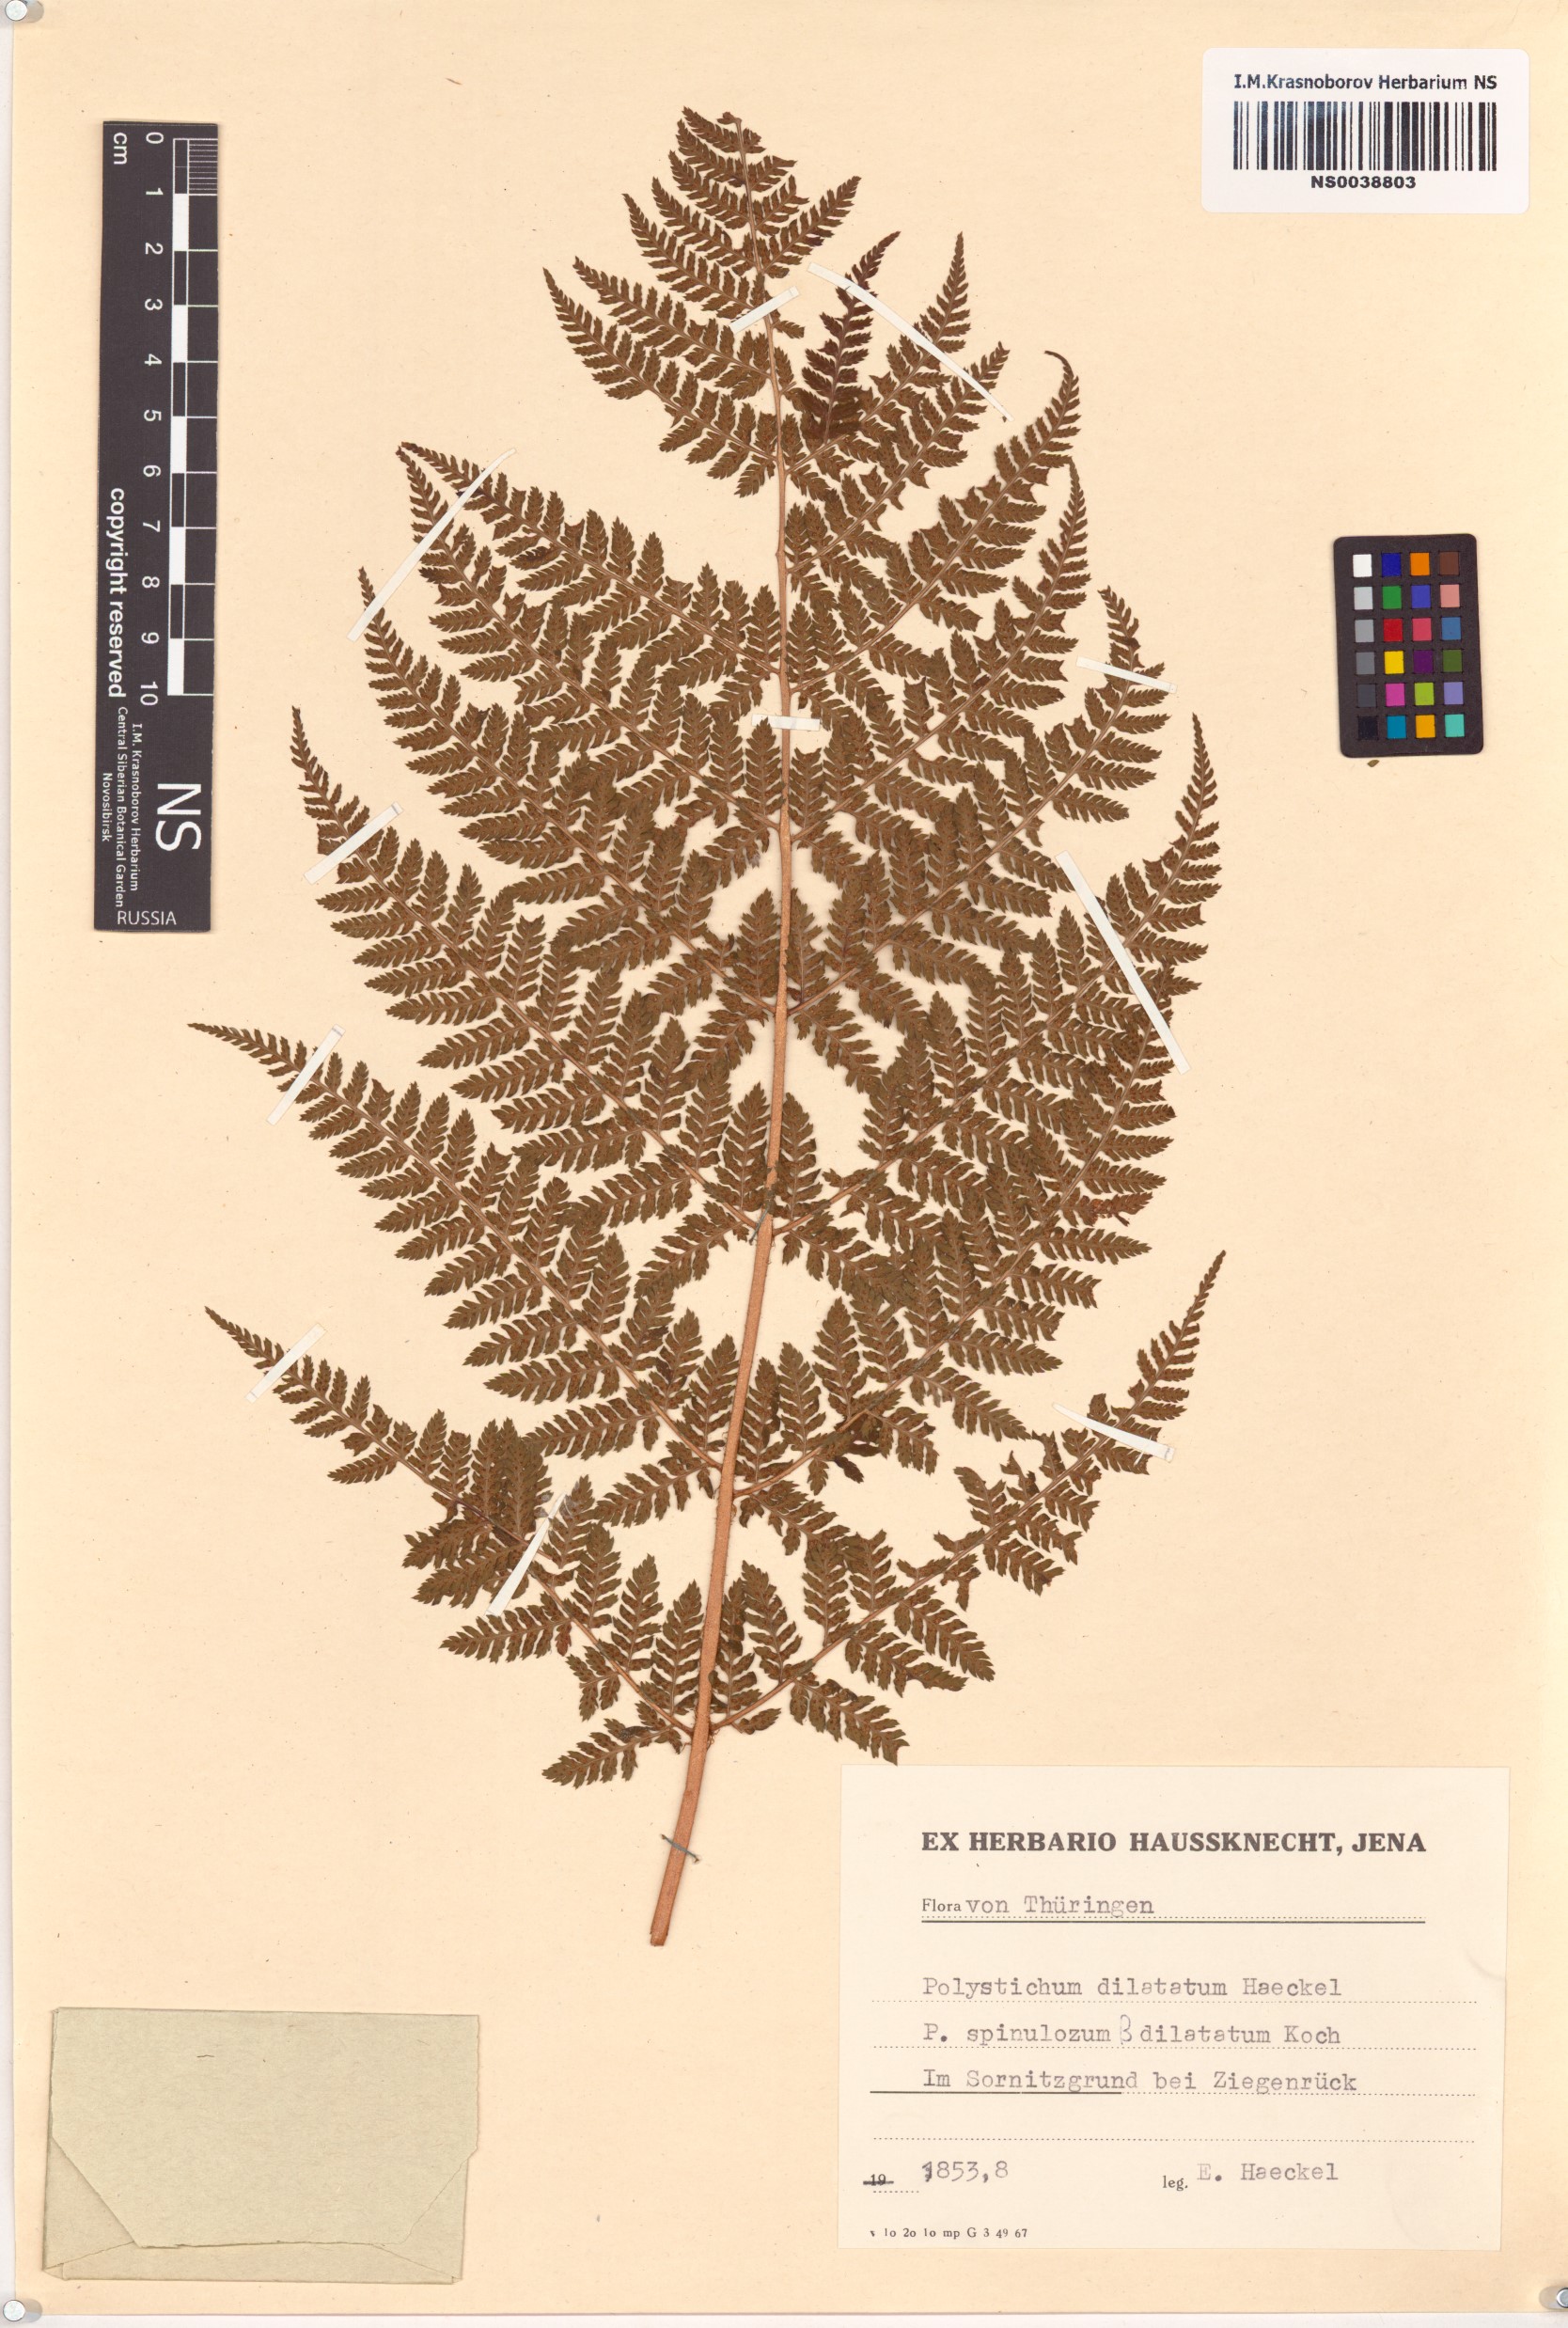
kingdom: Plantae
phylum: Tracheophyta
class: Polypodiopsida
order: Polypodiales
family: Dryopteridaceae
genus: Dryopteris
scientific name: Dryopteris dilatata
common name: Broad buckler-fern
